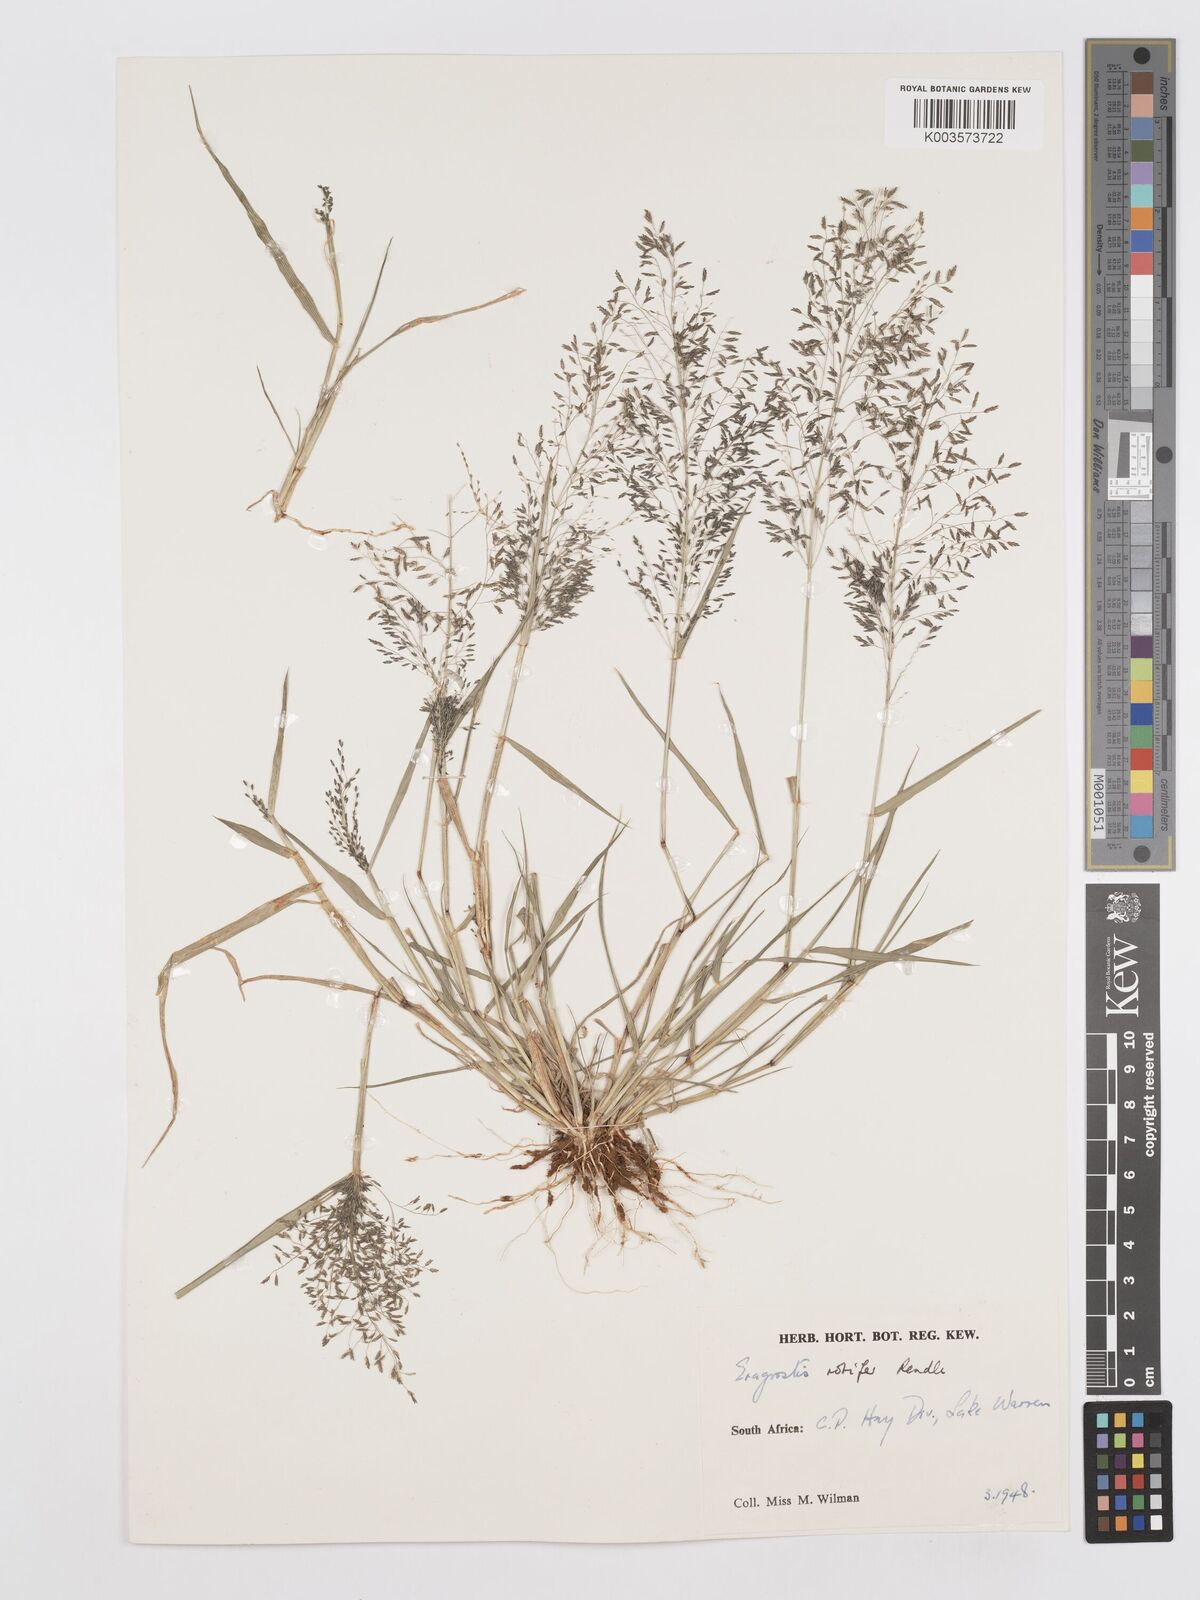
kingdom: Plantae
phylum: Tracheophyta
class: Liliopsida
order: Poales
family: Poaceae
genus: Eragrostis
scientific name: Eragrostis rotifer
